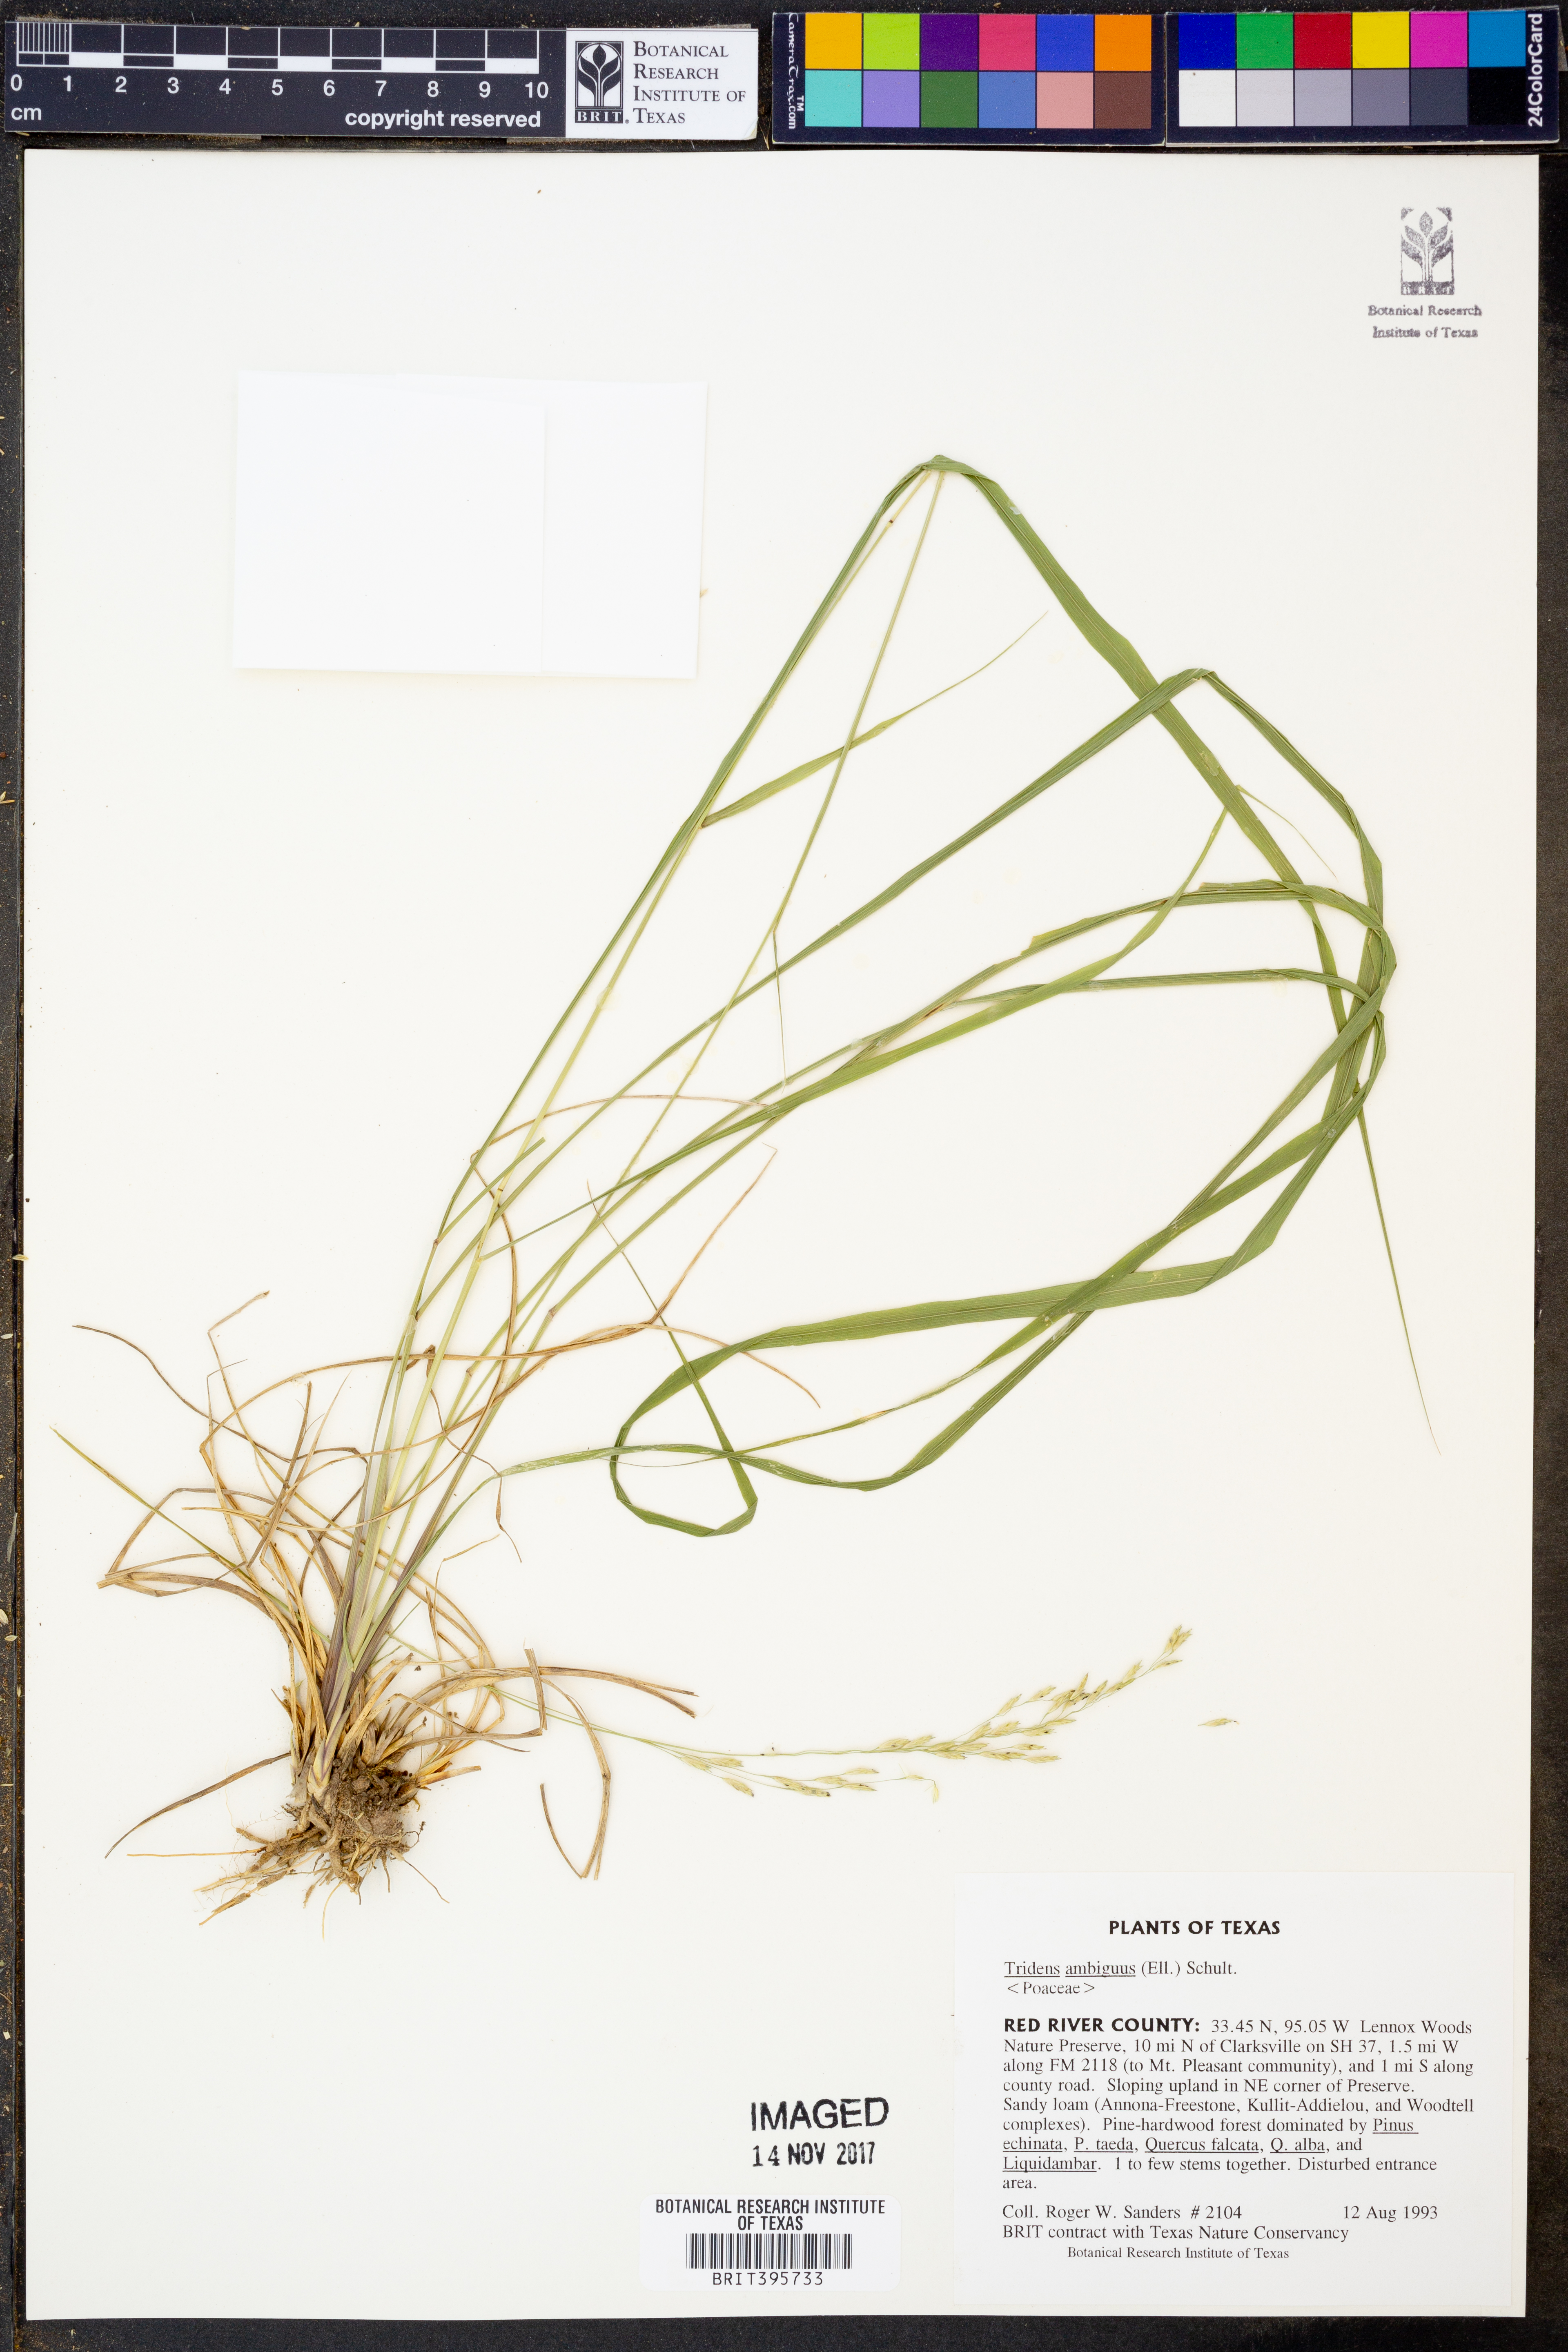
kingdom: Plantae
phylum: Tracheophyta
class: Liliopsida
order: Poales
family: Poaceae
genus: Tridens
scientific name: Tridens ambiguus
